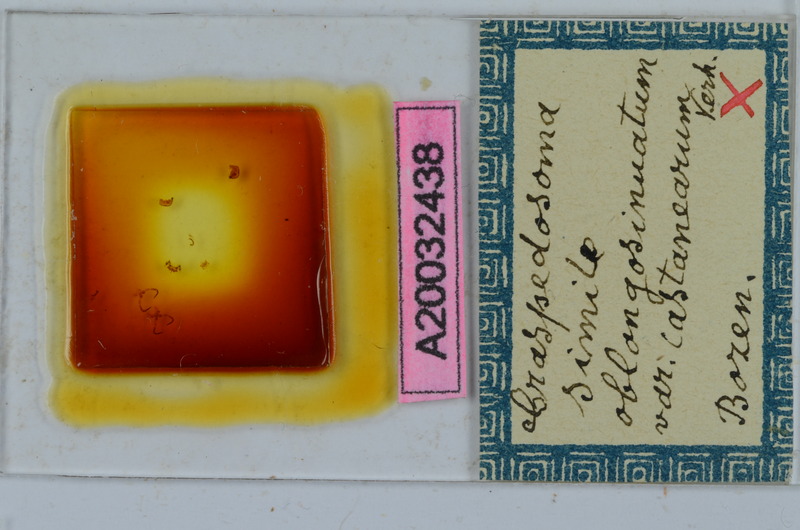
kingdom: Animalia
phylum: Arthropoda
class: Diplopoda
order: Chordeumatida
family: Craspedosomatidae
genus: Craspedosoma
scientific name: Craspedosoma rawlinsii
